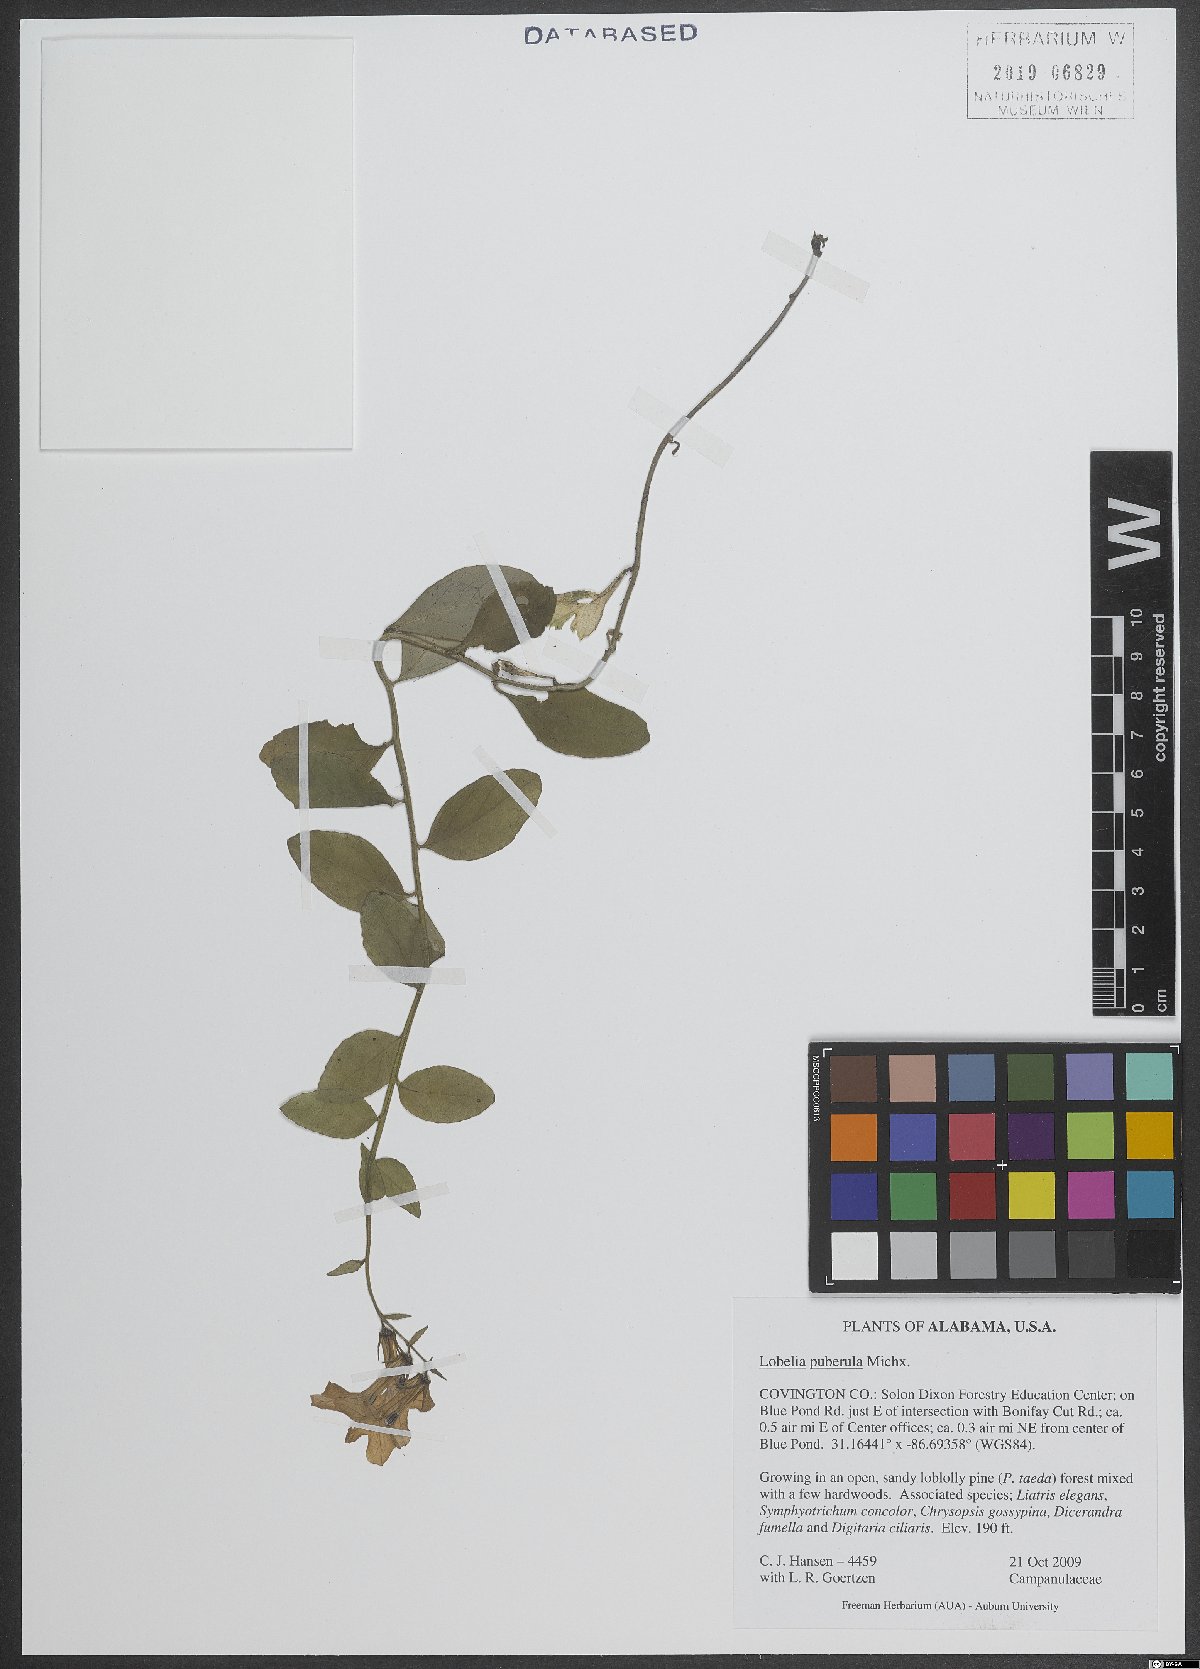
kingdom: Plantae
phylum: Tracheophyta
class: Magnoliopsida
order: Asterales
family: Campanulaceae
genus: Lobelia
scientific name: Lobelia puberula
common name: Purple dewdrop
